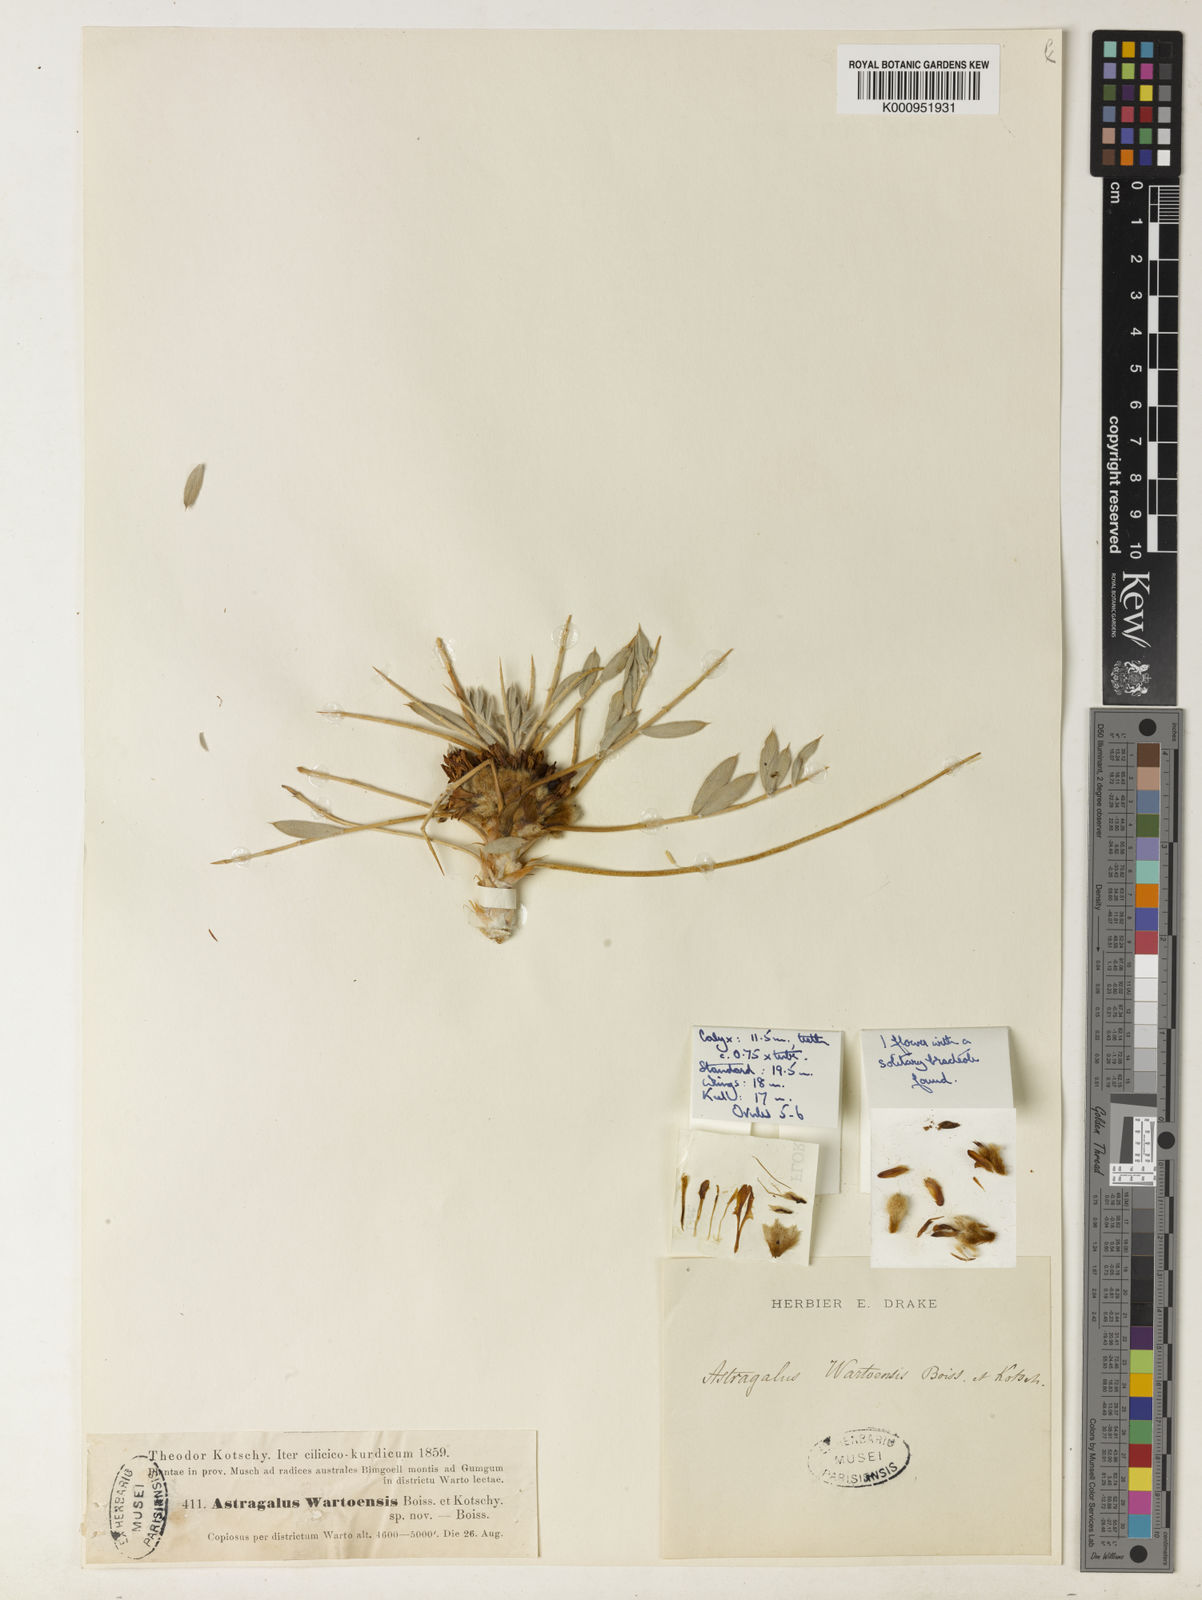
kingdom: Plantae
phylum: Tracheophyta
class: Magnoliopsida
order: Fabales
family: Fabaceae
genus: Astragalus
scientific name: Astragalus
